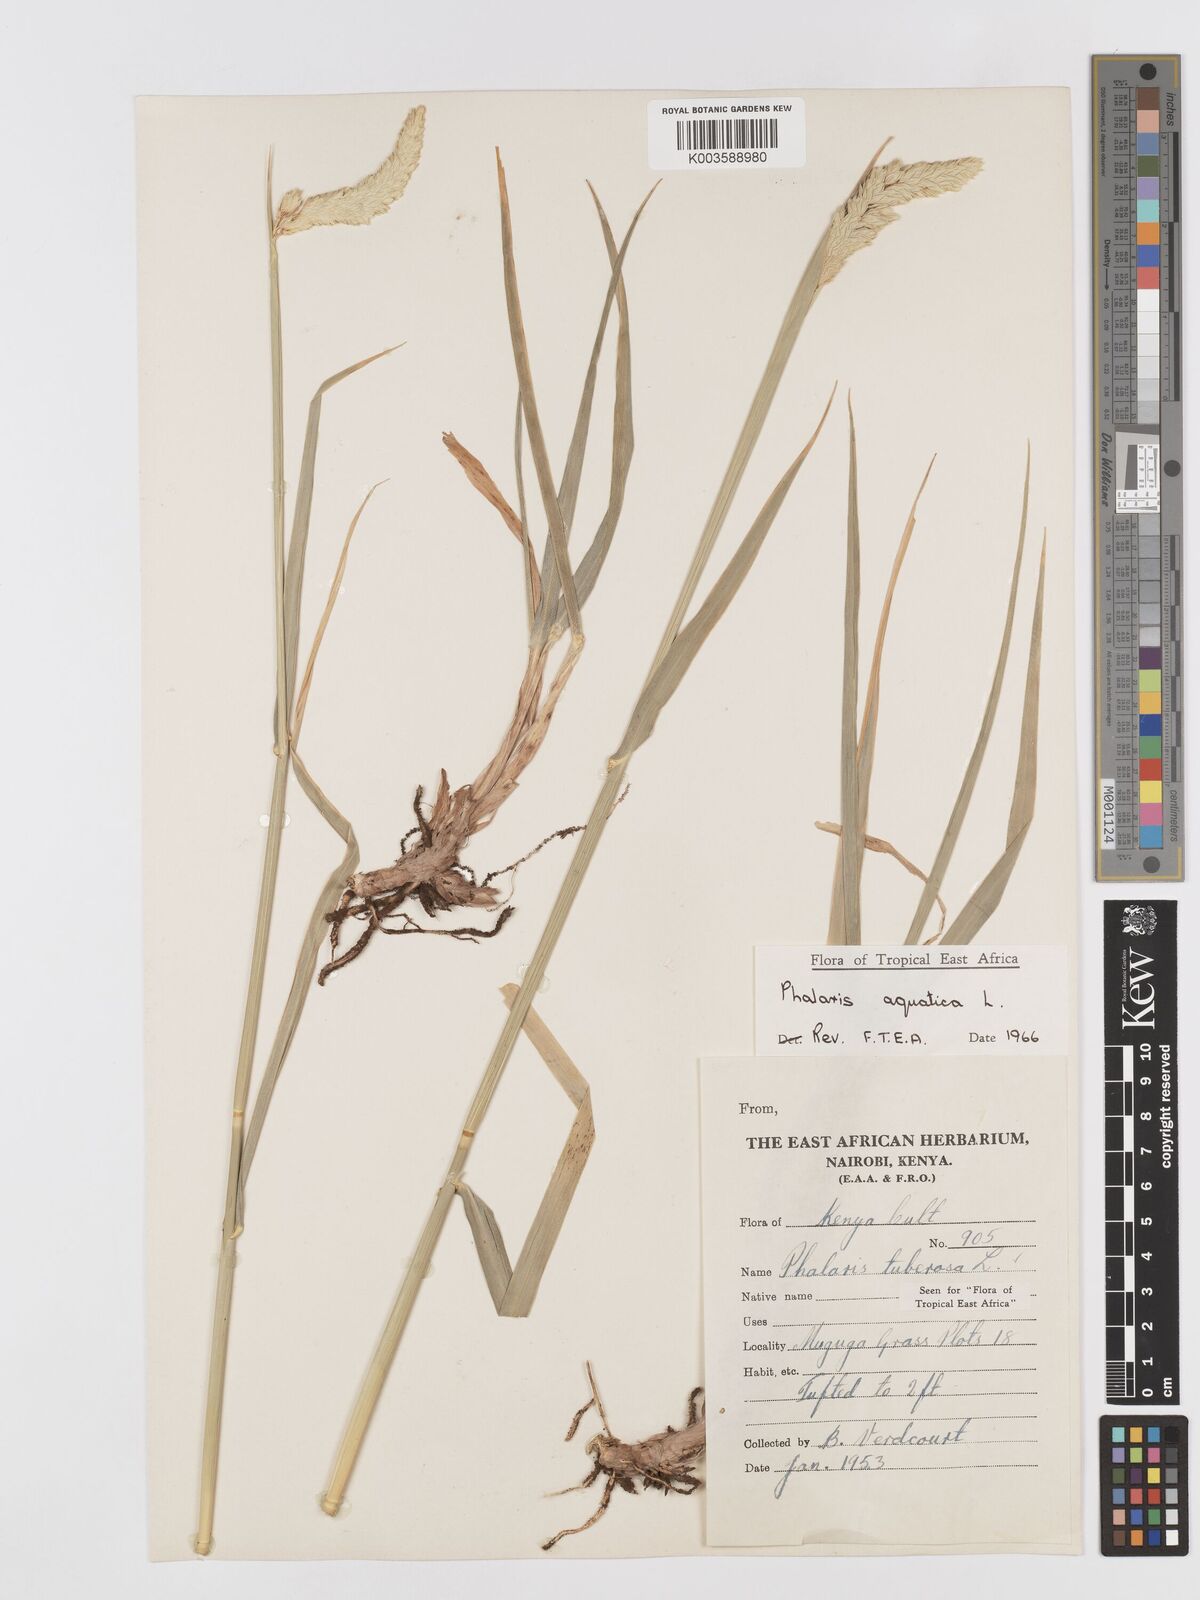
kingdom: Plantae
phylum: Tracheophyta
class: Liliopsida
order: Poales
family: Poaceae
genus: Phalaris
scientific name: Phalaris aquatica
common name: Bulbous canary-grass
